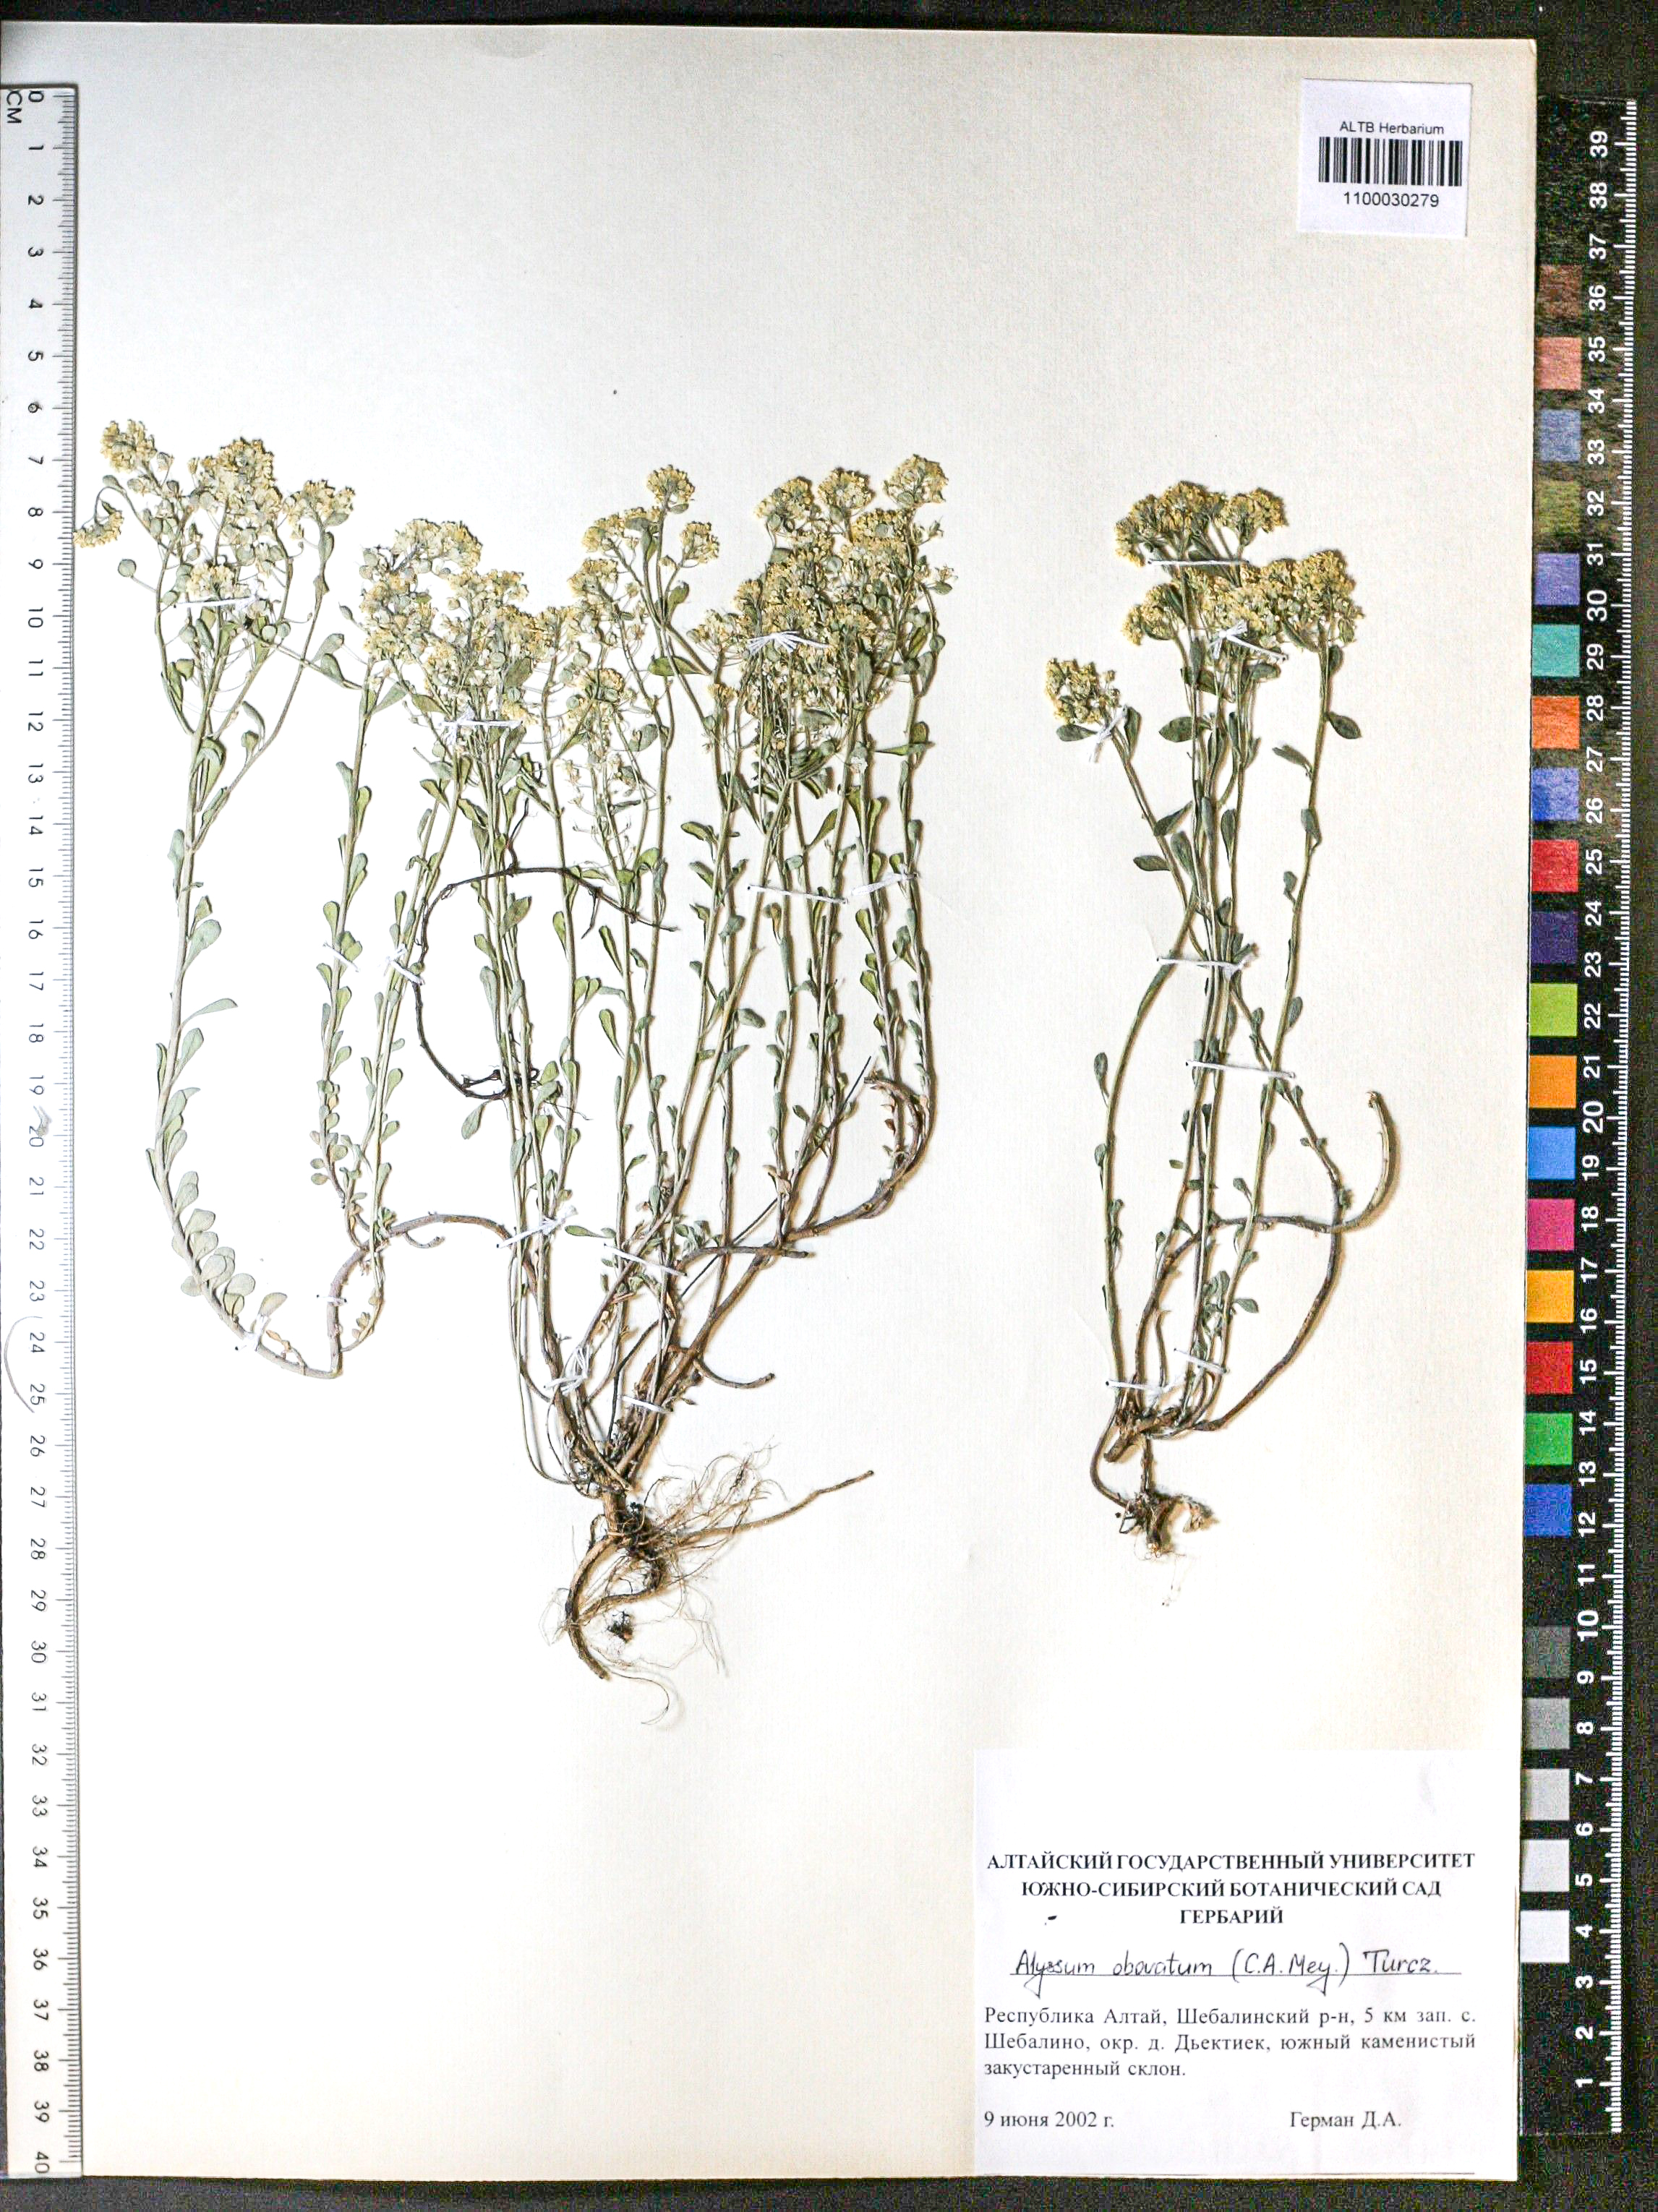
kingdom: Plantae
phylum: Tracheophyta
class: Magnoliopsida
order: Brassicales
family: Brassicaceae
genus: Odontarrhena
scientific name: Odontarrhena obovata
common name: American alyssum
